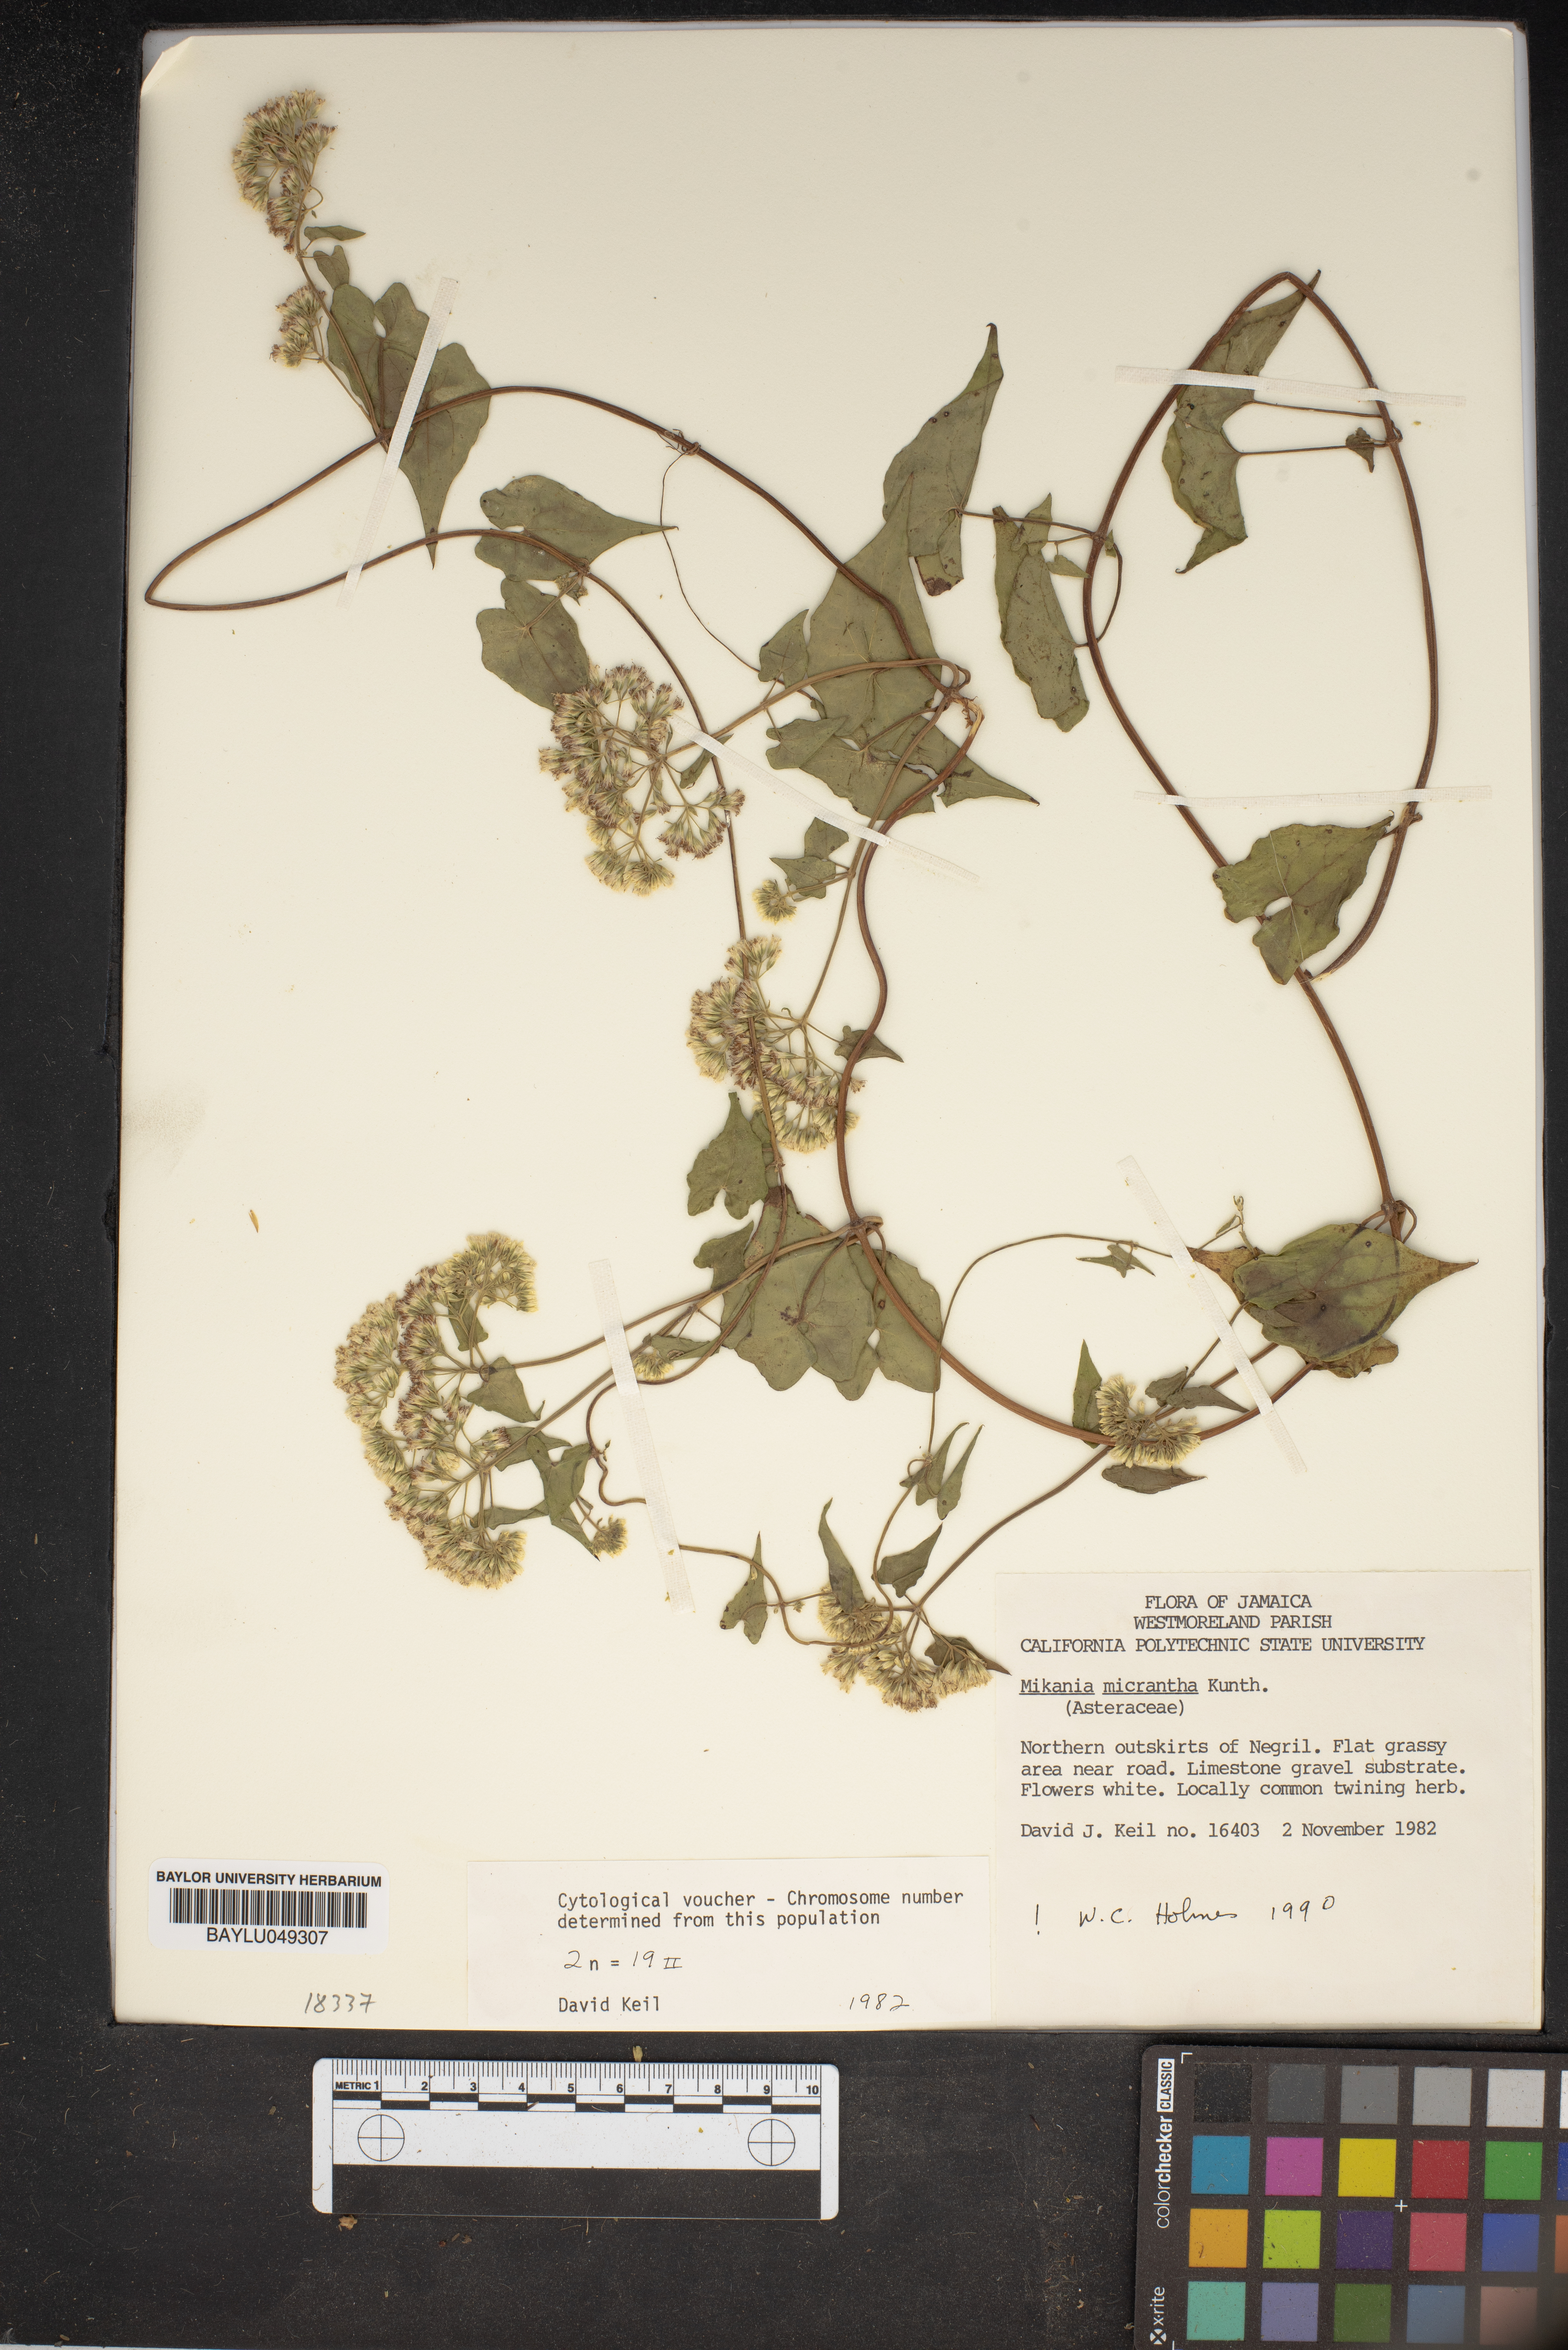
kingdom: Plantae
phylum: Tracheophyta
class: Magnoliopsida
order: Asterales
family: Asteraceae
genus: Mikania
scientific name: Mikania micrantha
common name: Mile-a-minute
